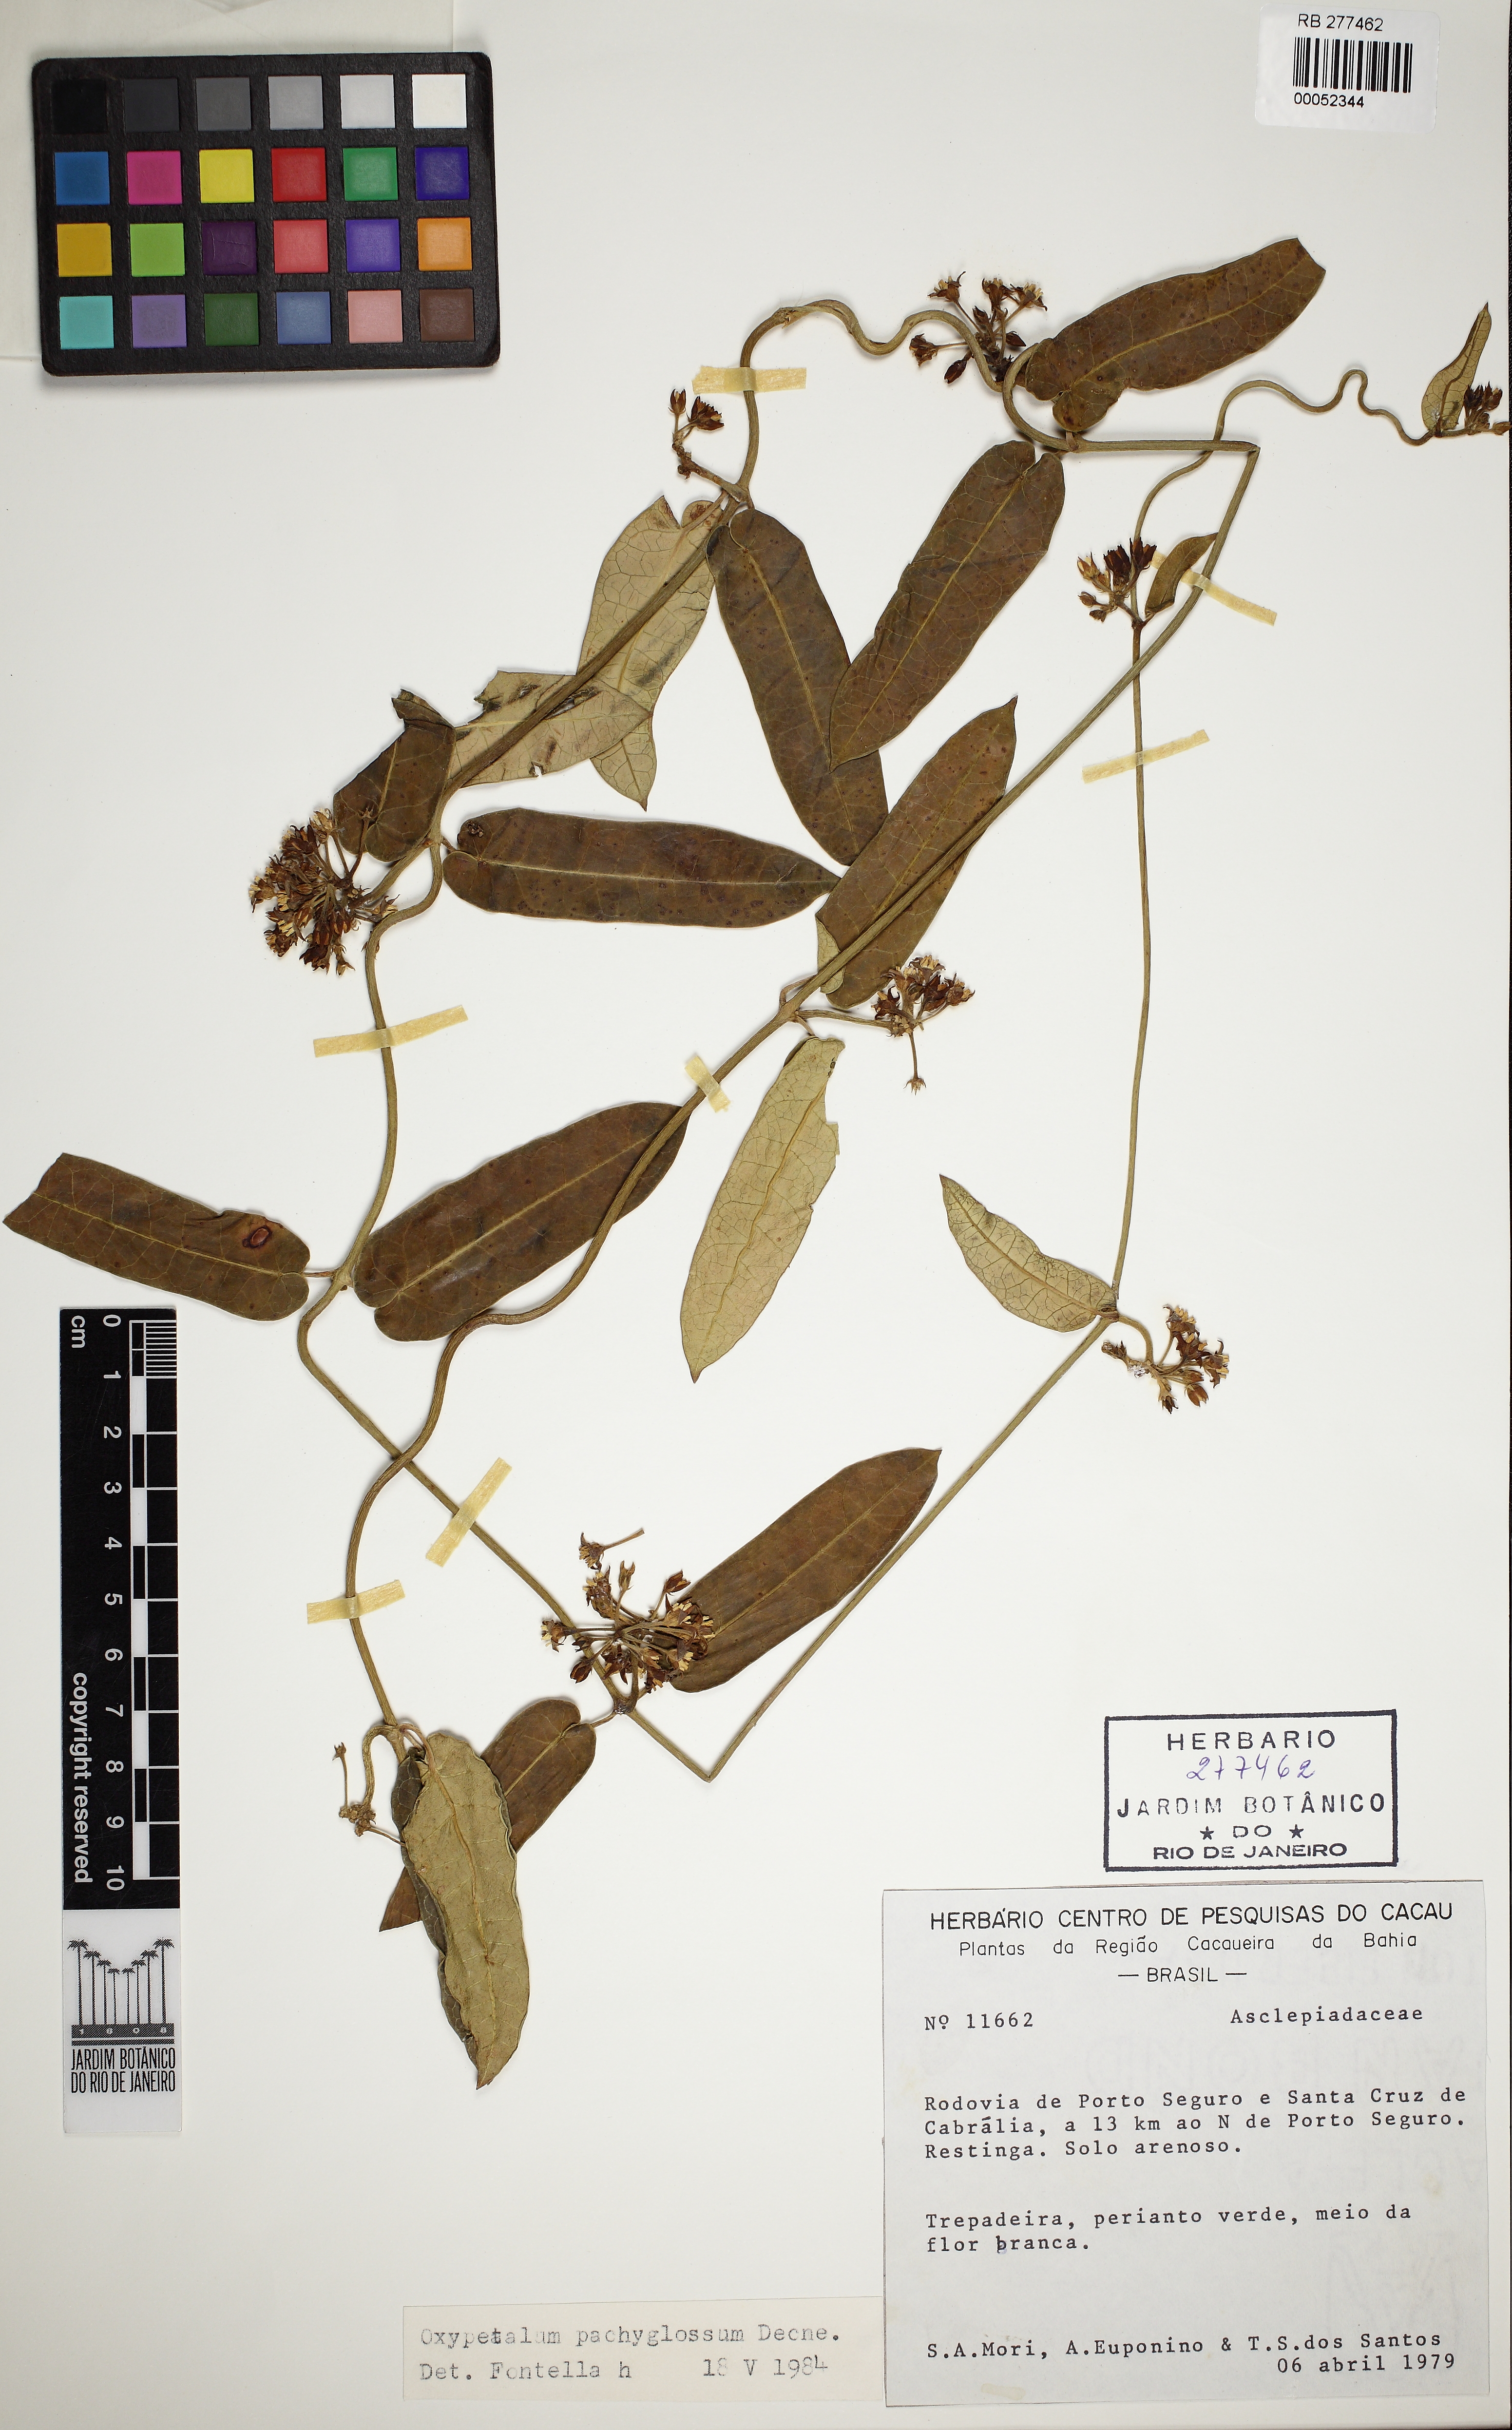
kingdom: Plantae
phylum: Tracheophyta
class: Magnoliopsida
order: Gentianales
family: Apocynaceae
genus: Oxypetalum
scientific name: Oxypetalum pachyglossum
